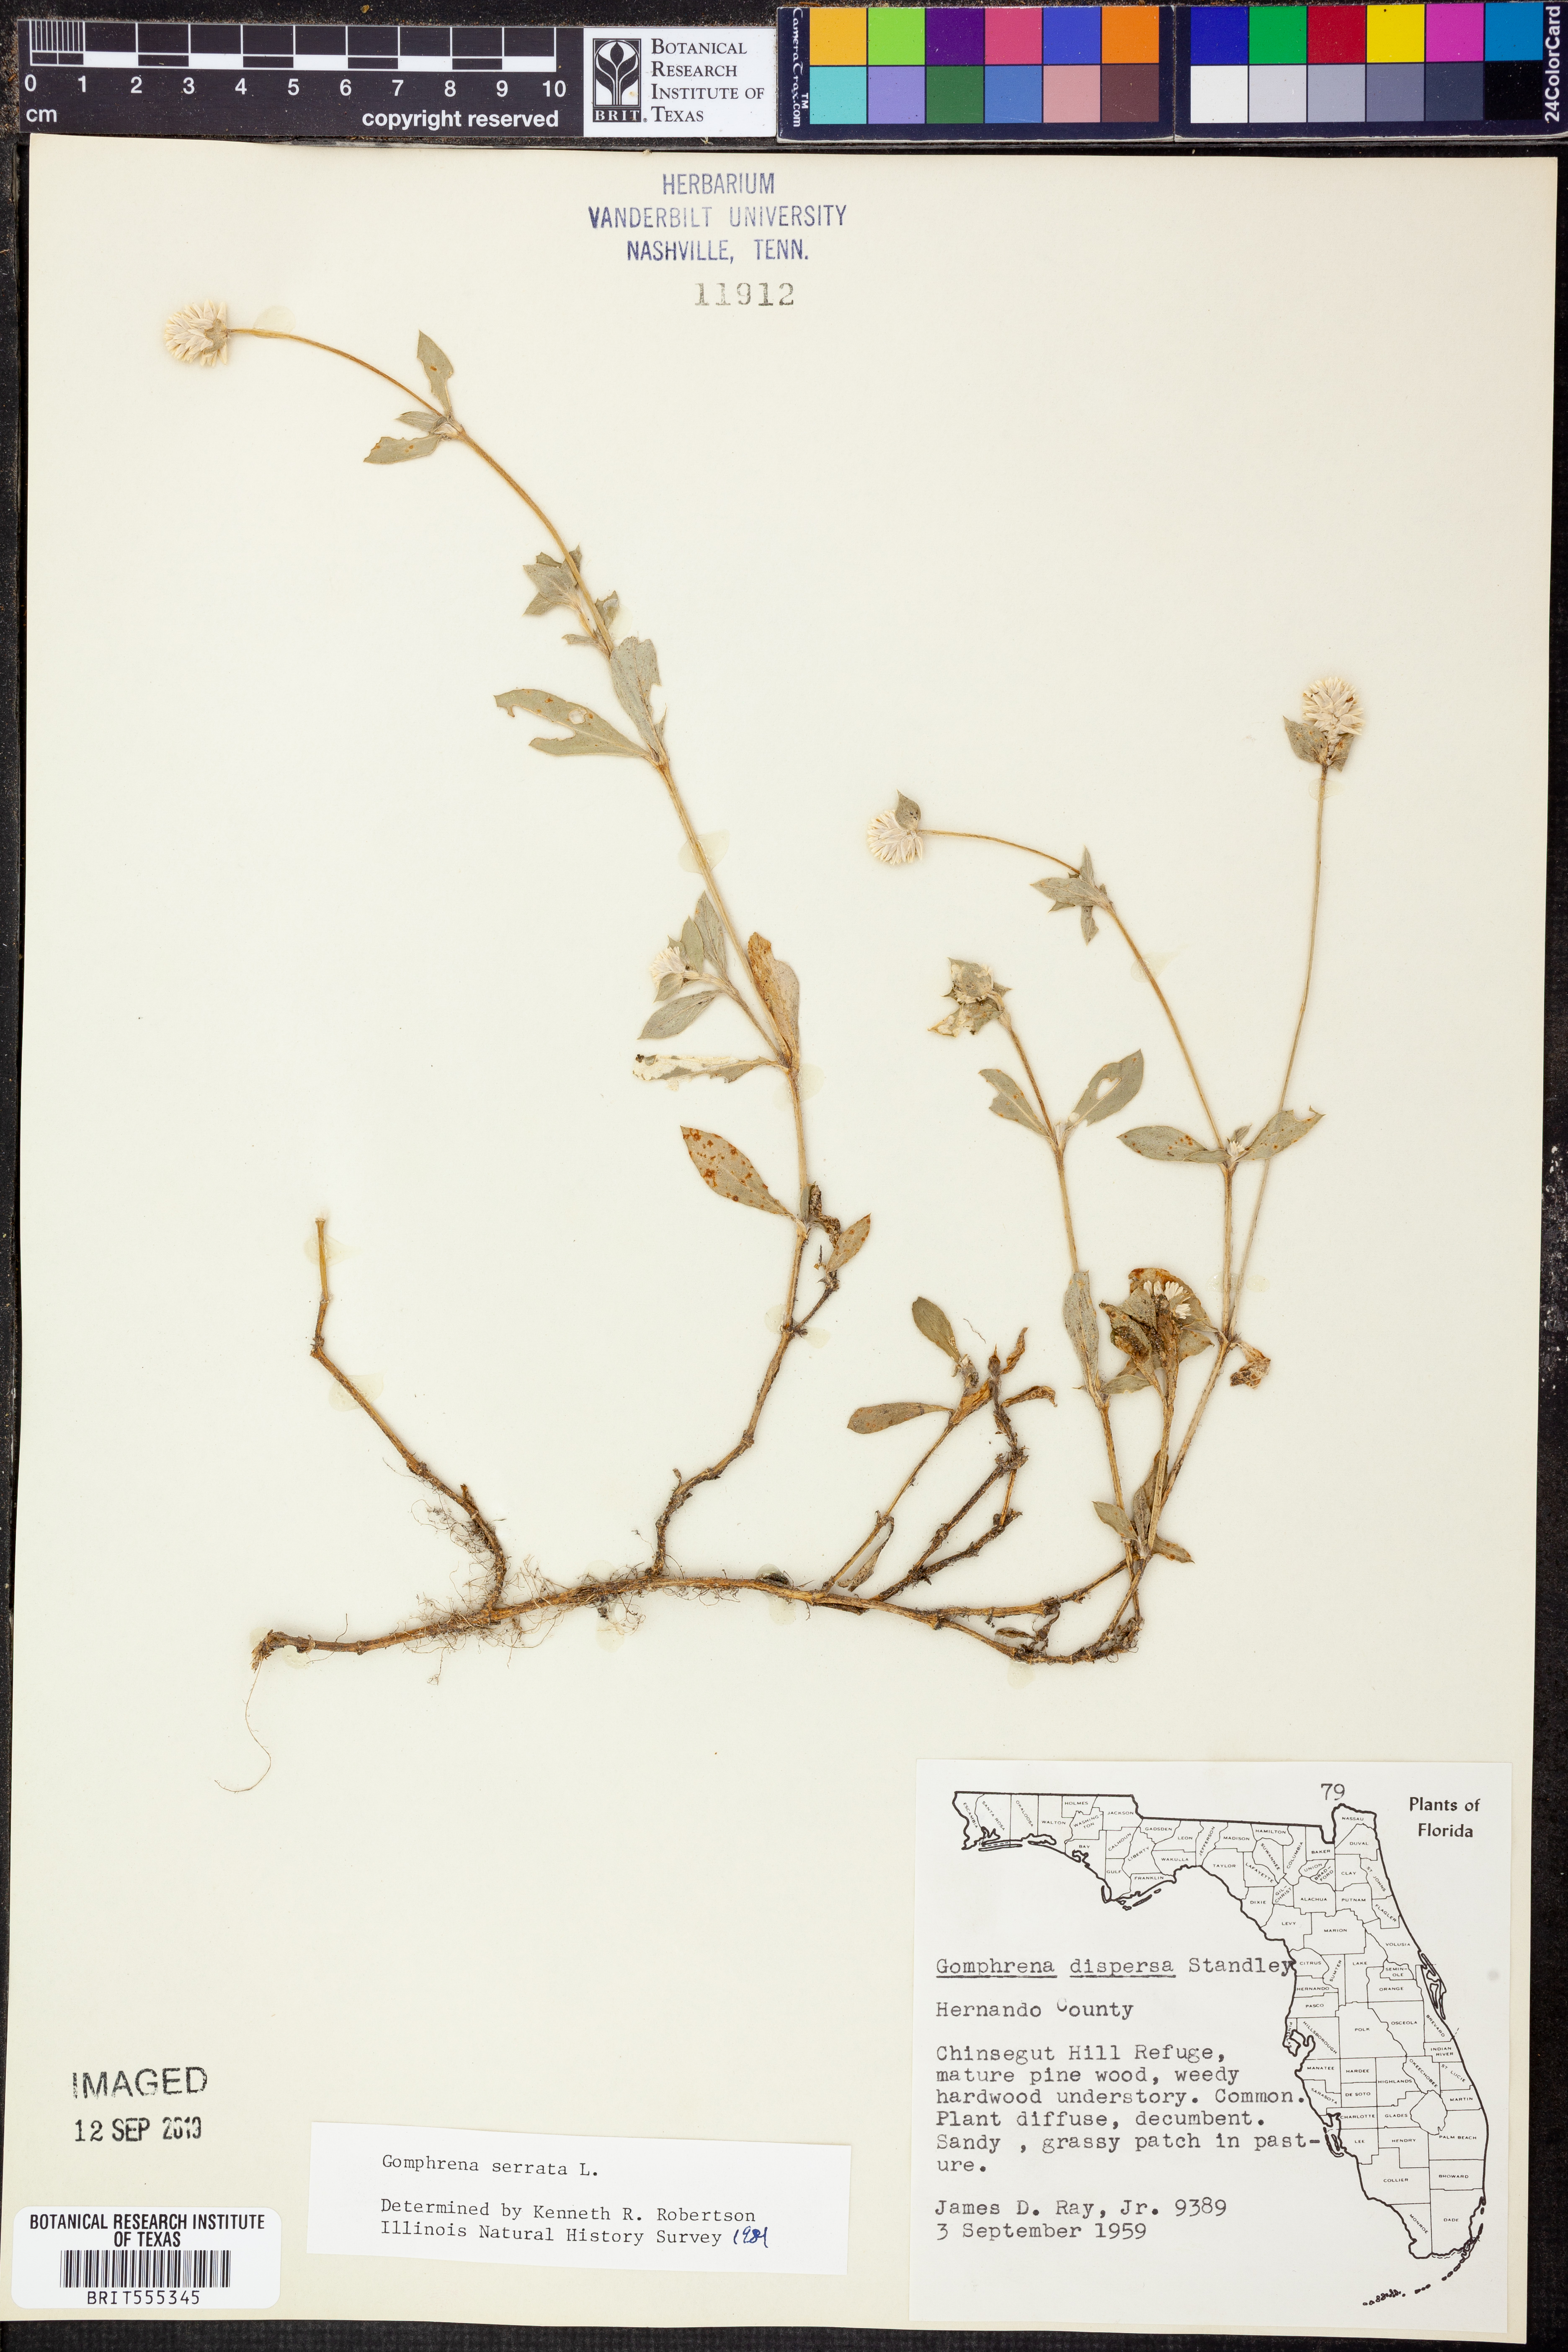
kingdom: Plantae
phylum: Tracheophyta
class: Magnoliopsida
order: Caryophyllales
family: Amaranthaceae
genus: Gomphrena
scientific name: Gomphrena serrata
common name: Arrasa con todo
